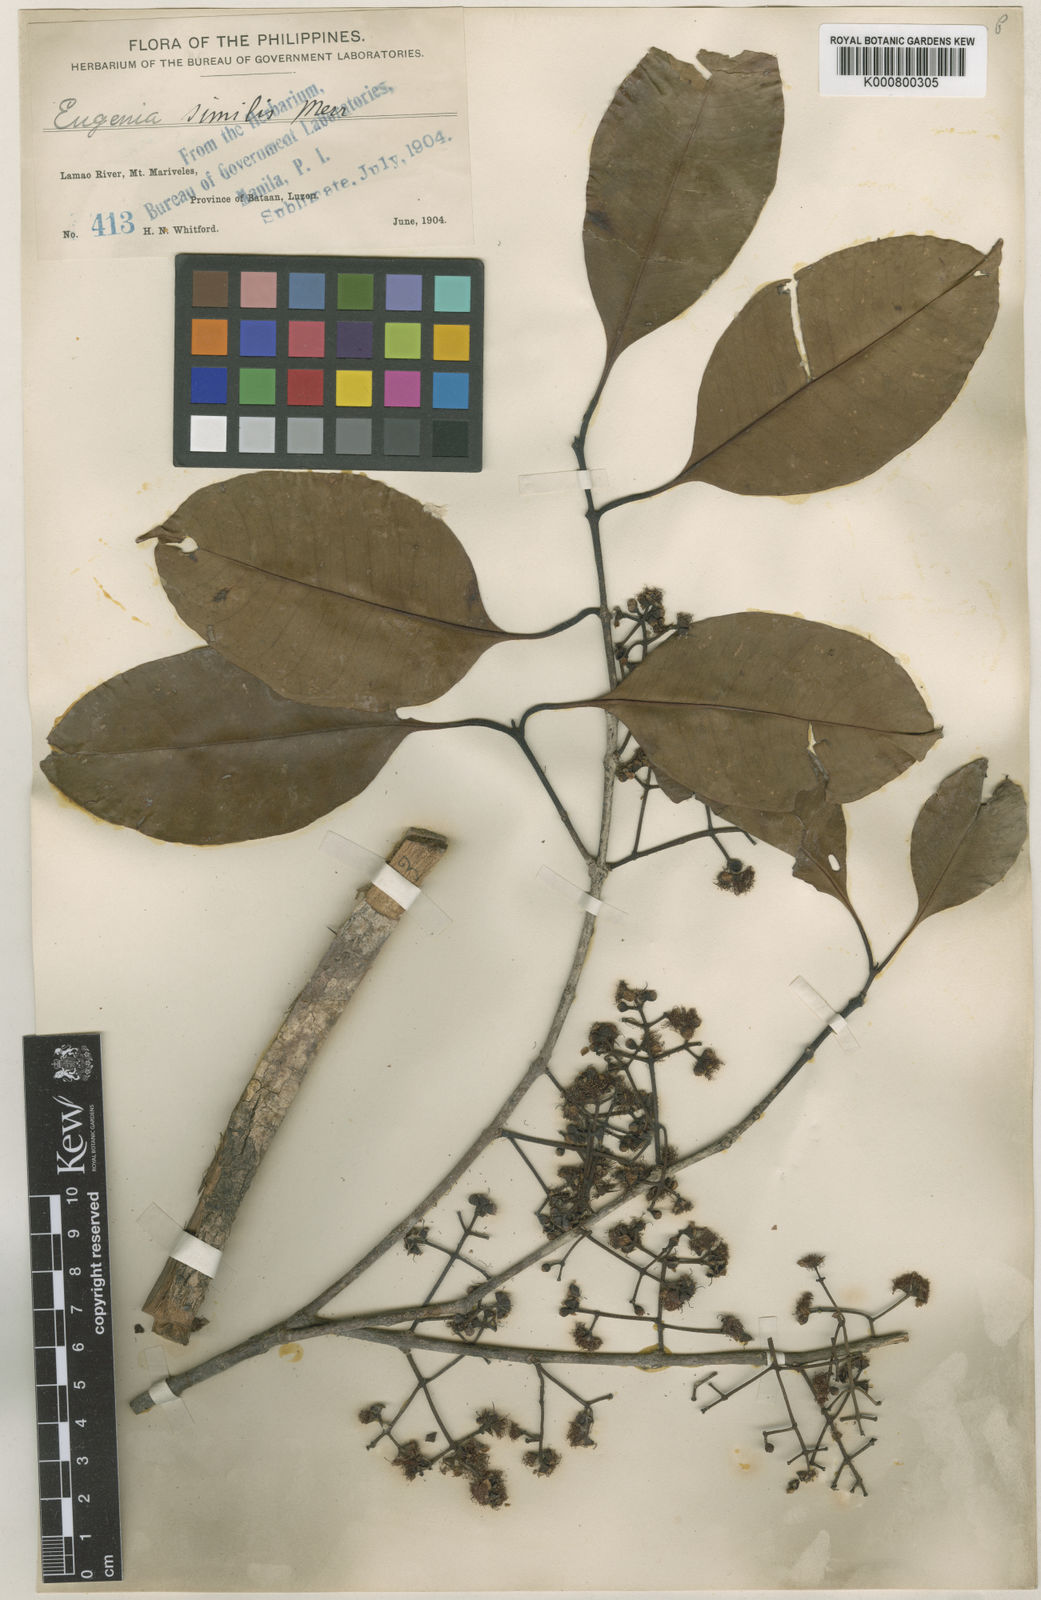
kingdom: Plantae
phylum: Tracheophyta
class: Magnoliopsida
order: Myrtales
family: Myrtaceae
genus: Syzygium
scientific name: Syzygium simile
